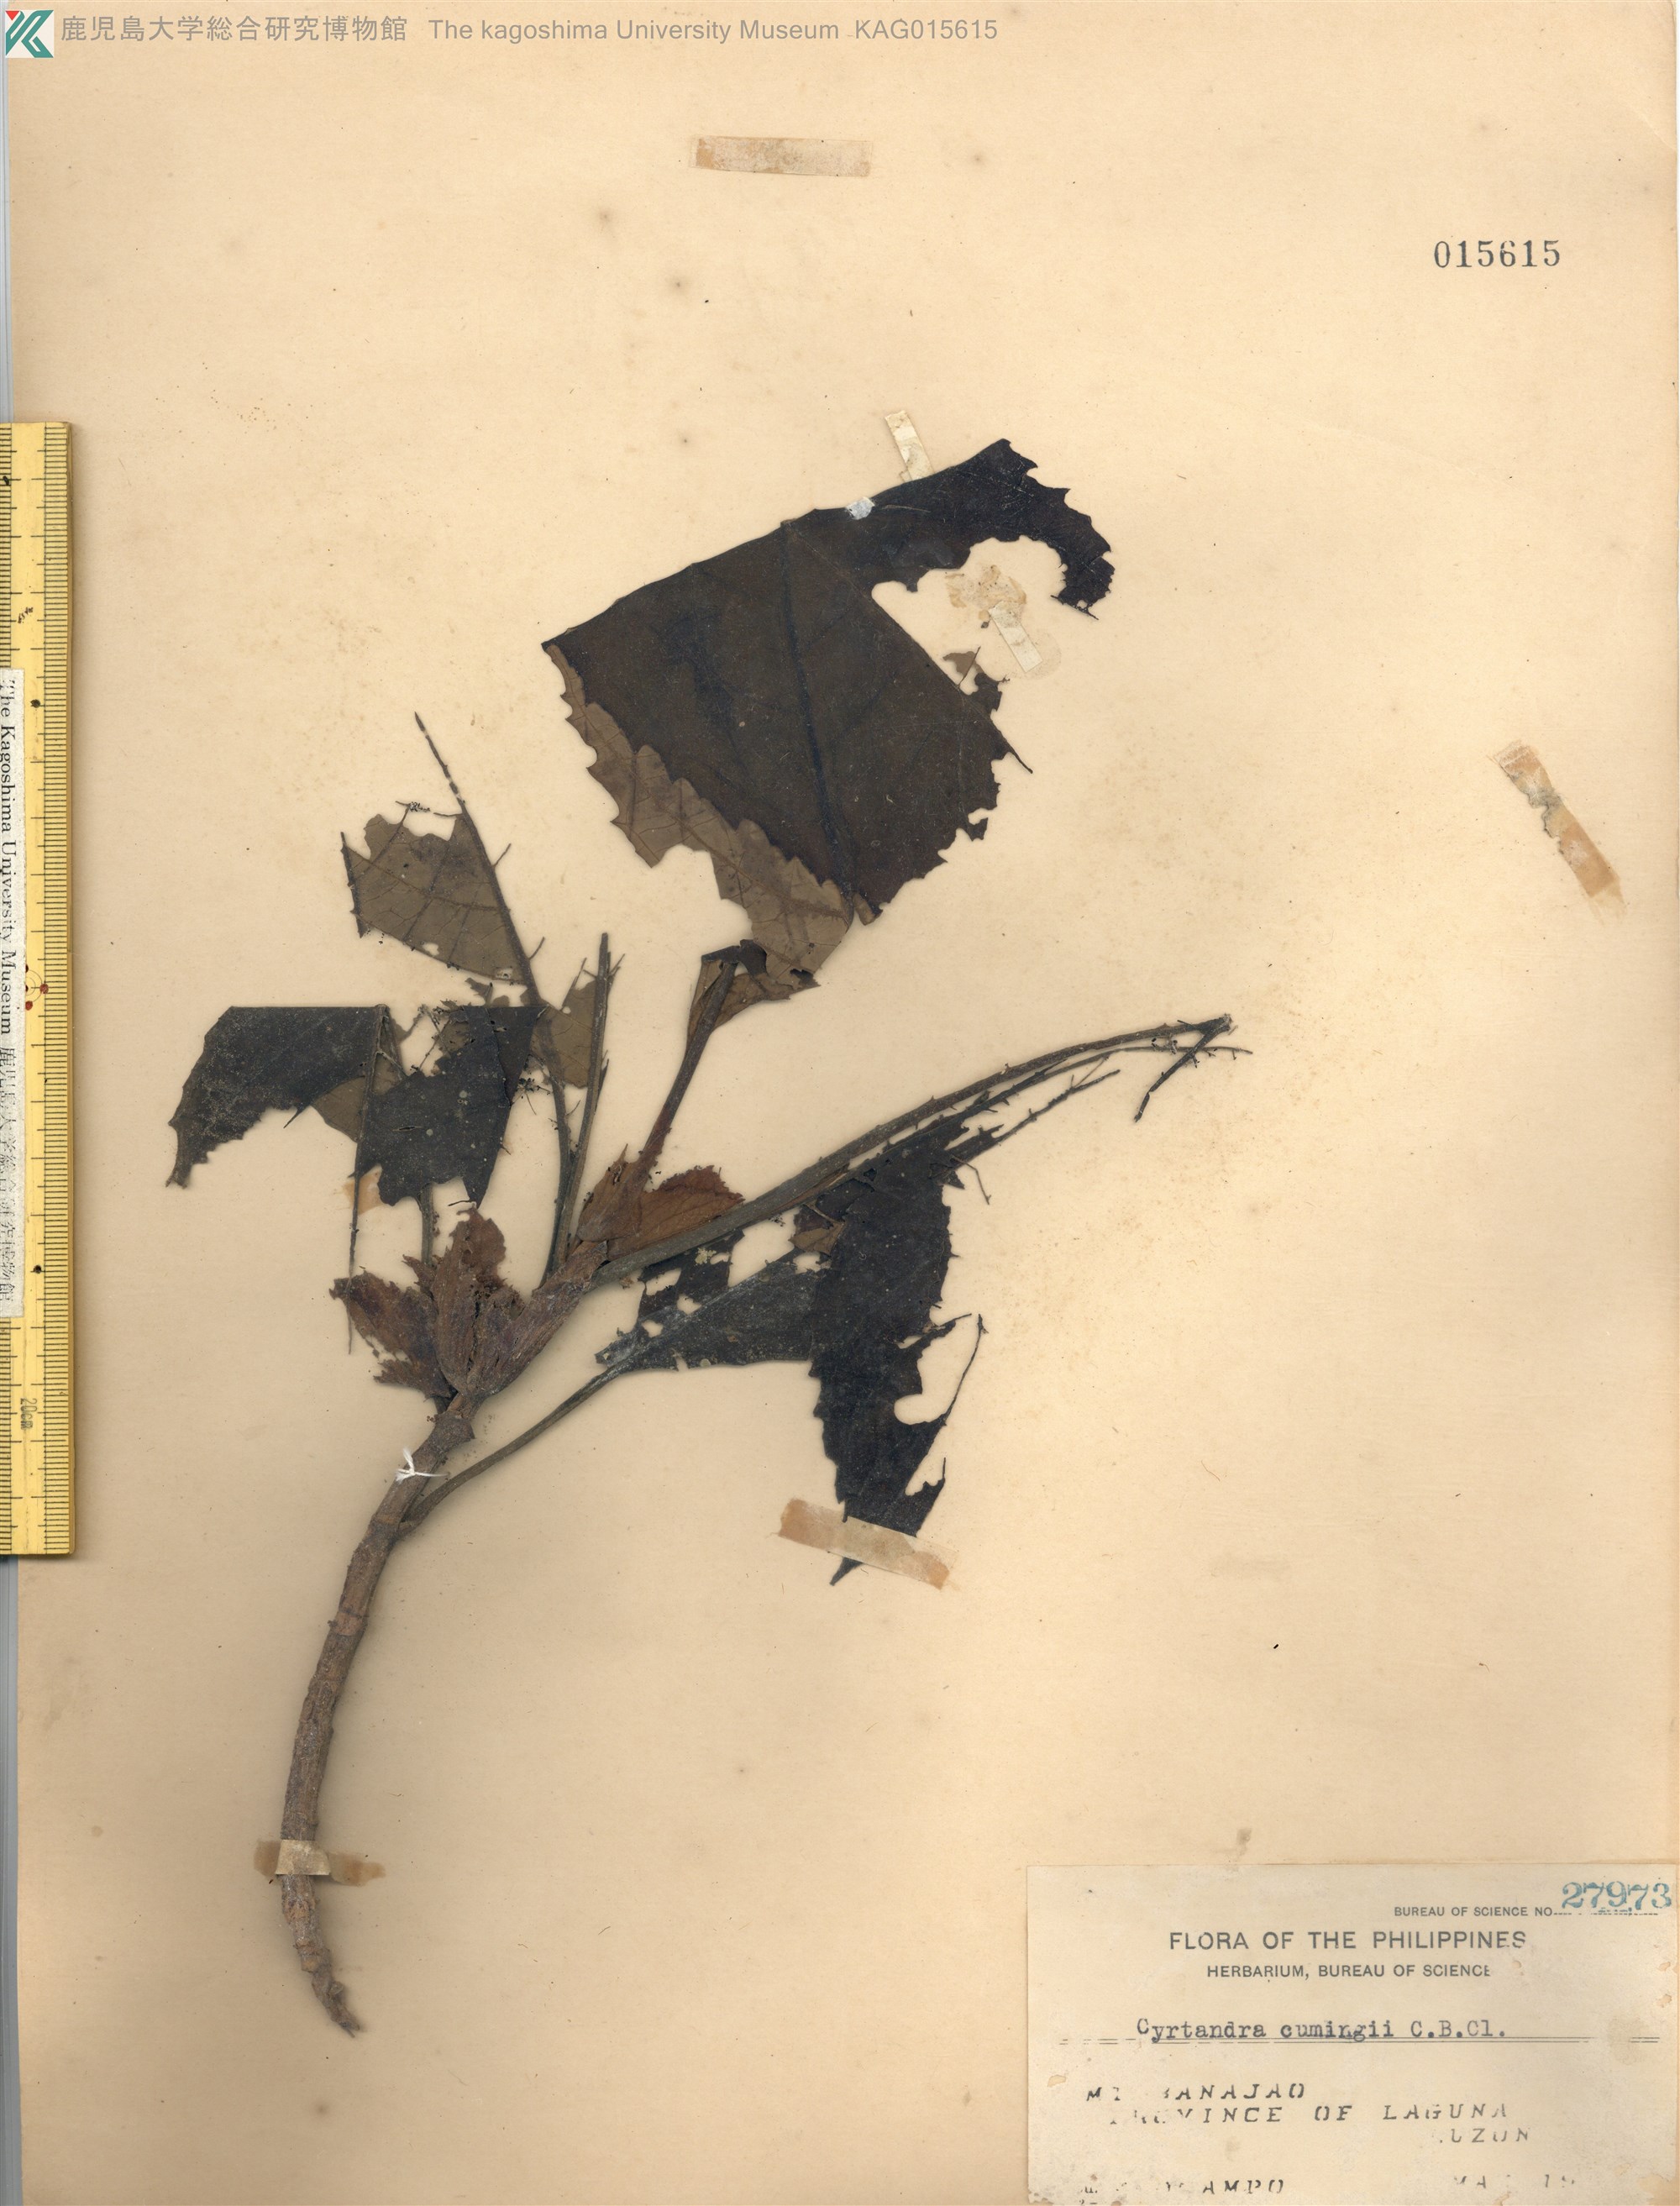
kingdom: Plantae
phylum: Tracheophyta
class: Magnoliopsida
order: Lamiales
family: Gesneriaceae
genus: Cyrtandra
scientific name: Cyrtandra cumingii
